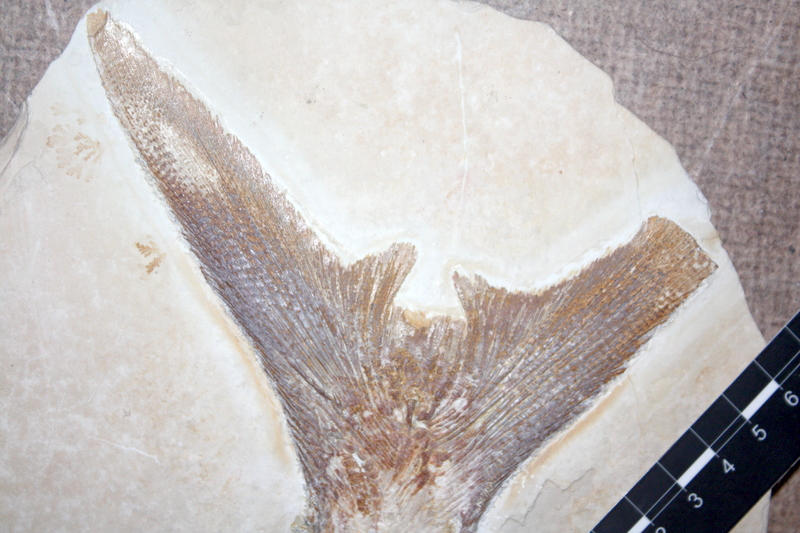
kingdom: Animalia
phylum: Chordata
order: Amiiformes
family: Caturidae
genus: Caturus
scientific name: Caturus furcatus
